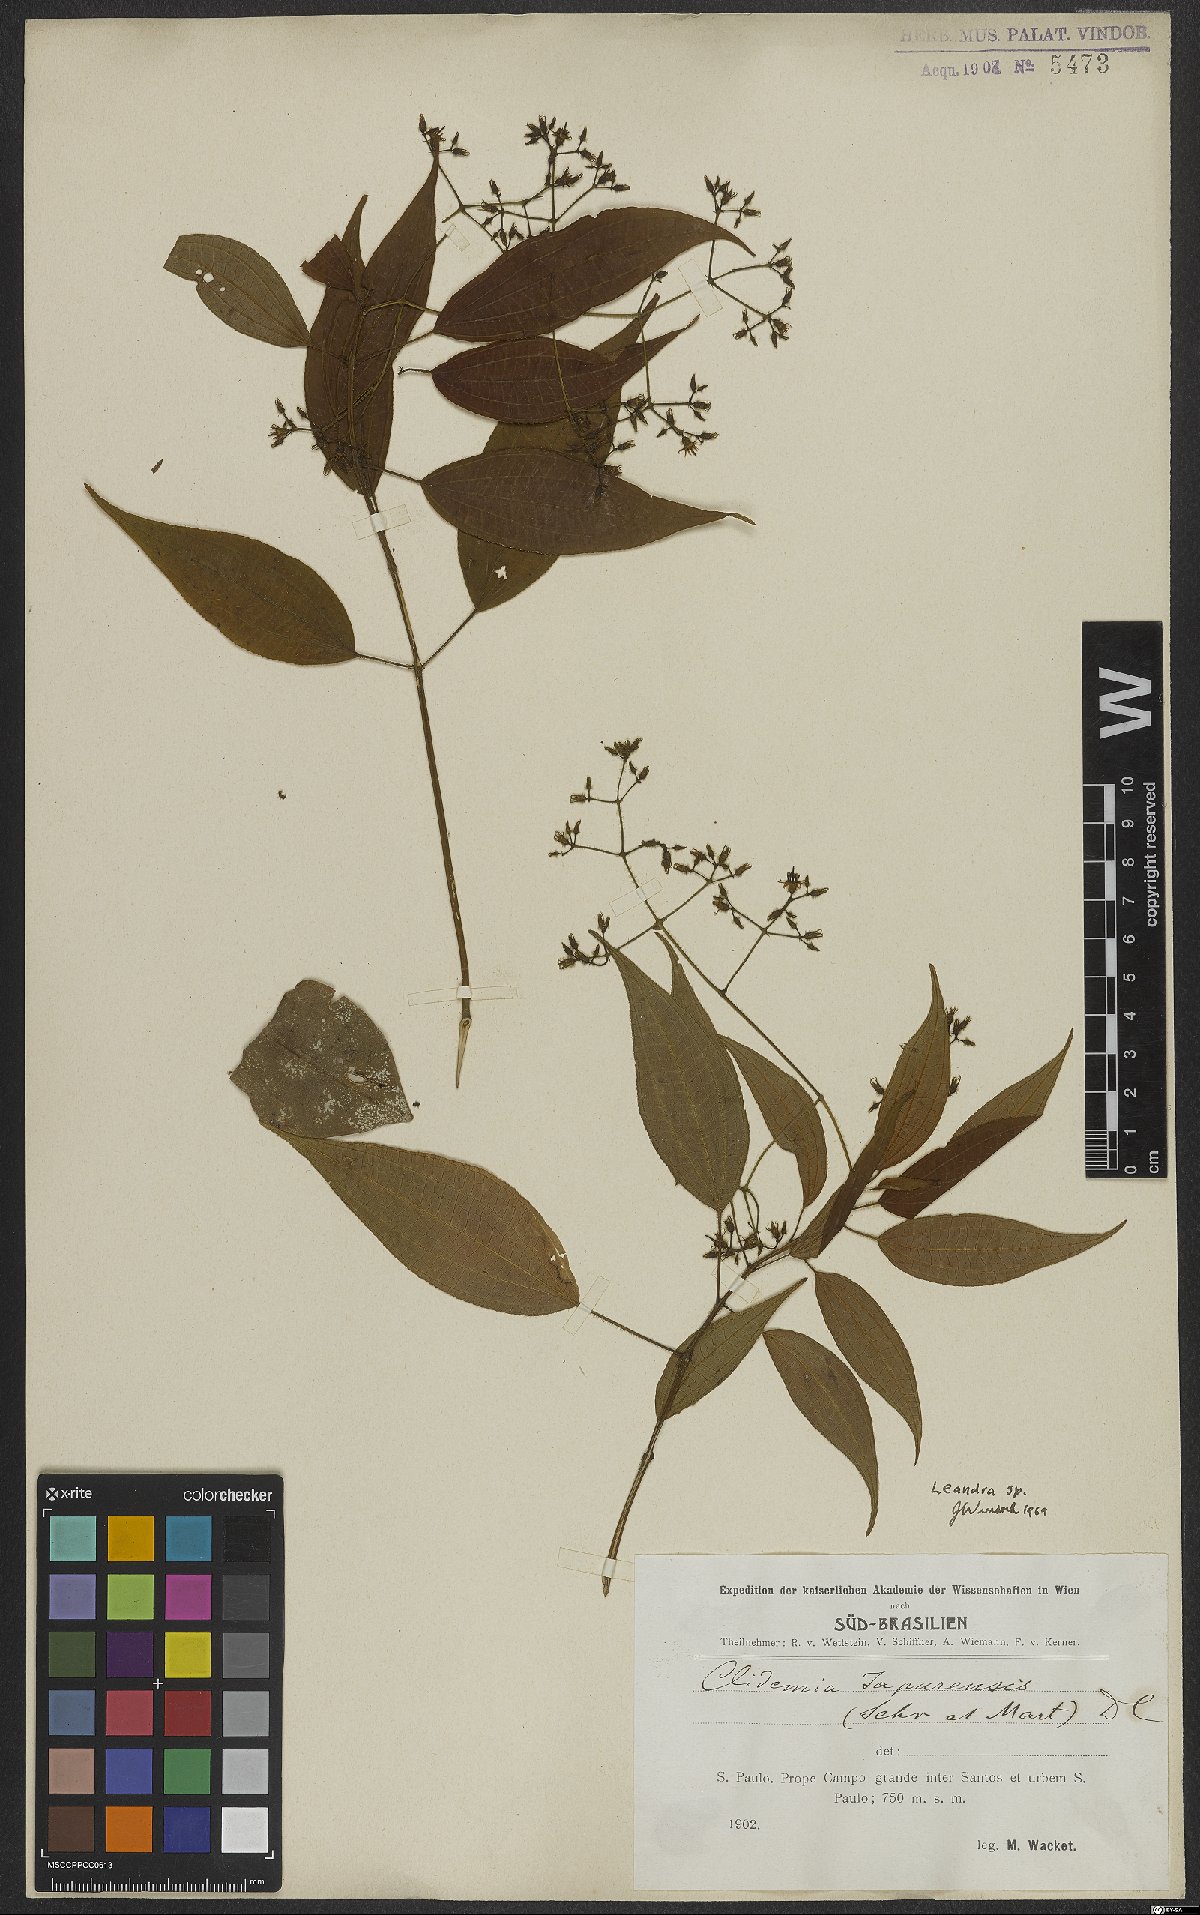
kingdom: Plantae
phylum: Tracheophyta
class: Magnoliopsida
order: Myrtales
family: Melastomataceae
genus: Miconia
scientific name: Miconia
